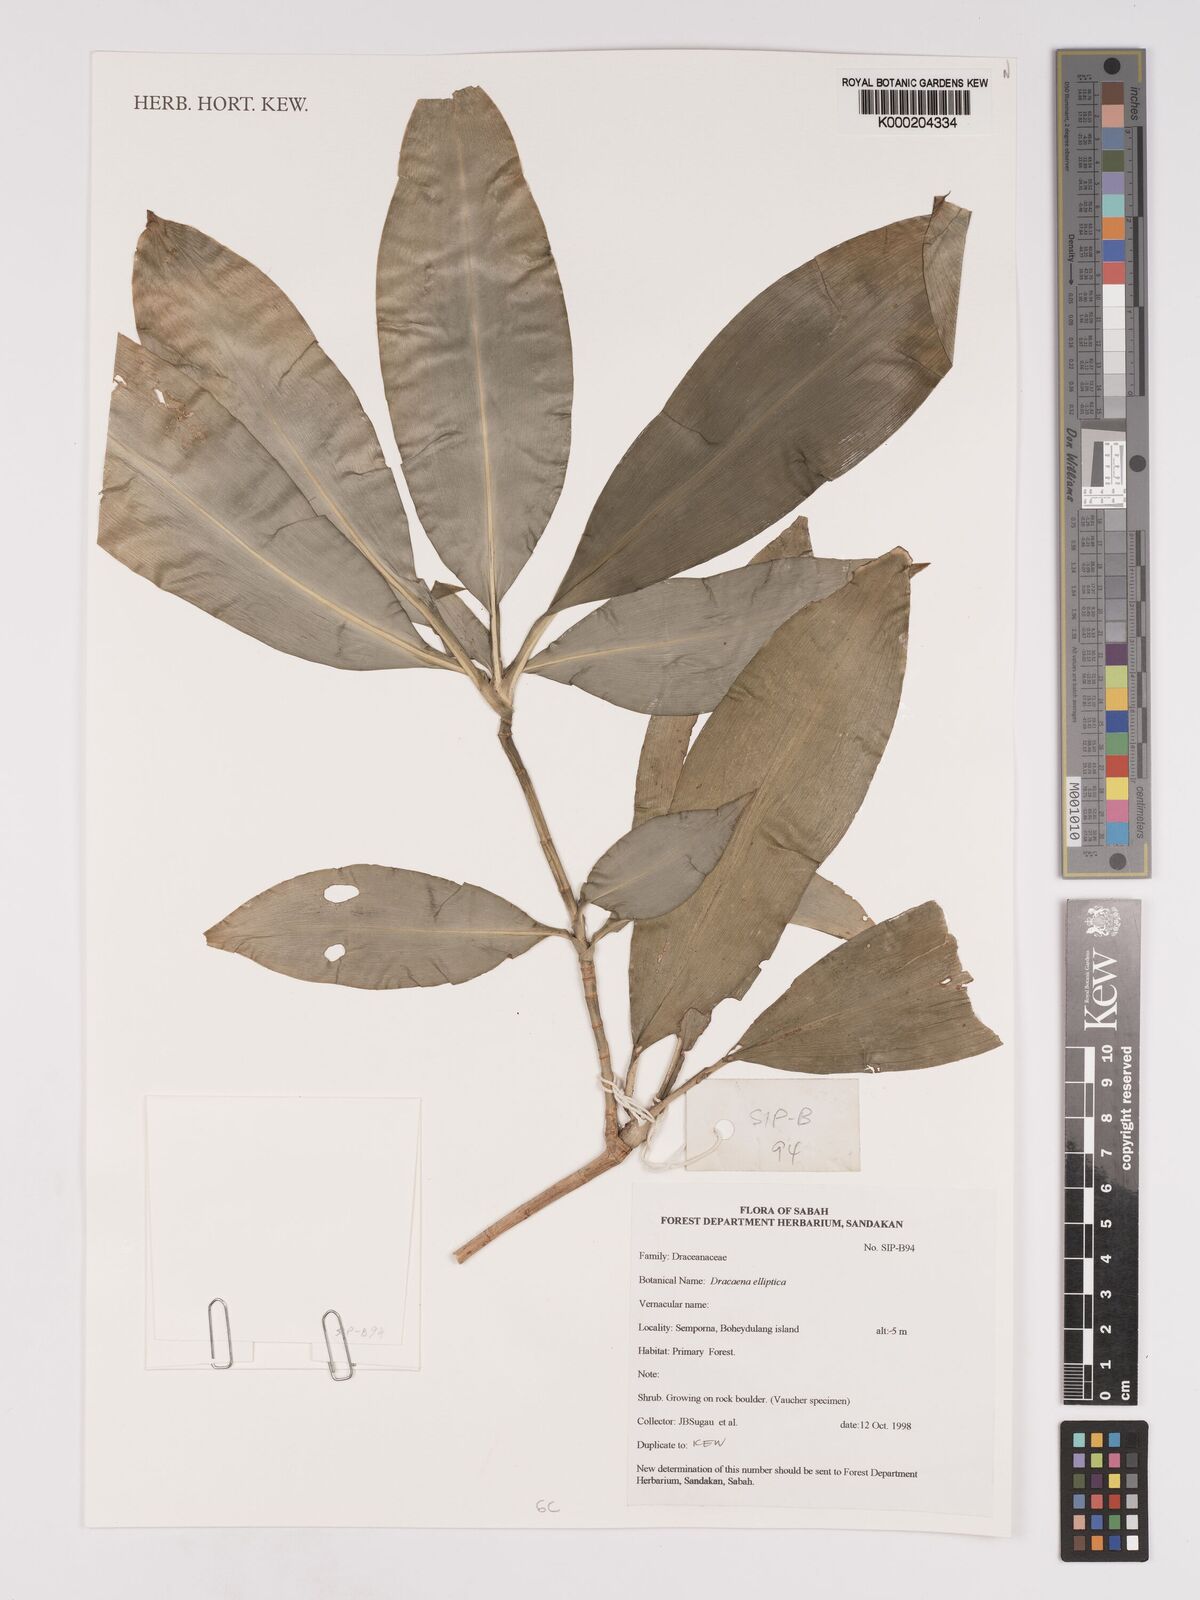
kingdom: Plantae
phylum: Tracheophyta
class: Liliopsida
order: Asparagales
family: Asparagaceae
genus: Dracaena
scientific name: Dracaena elliptica
